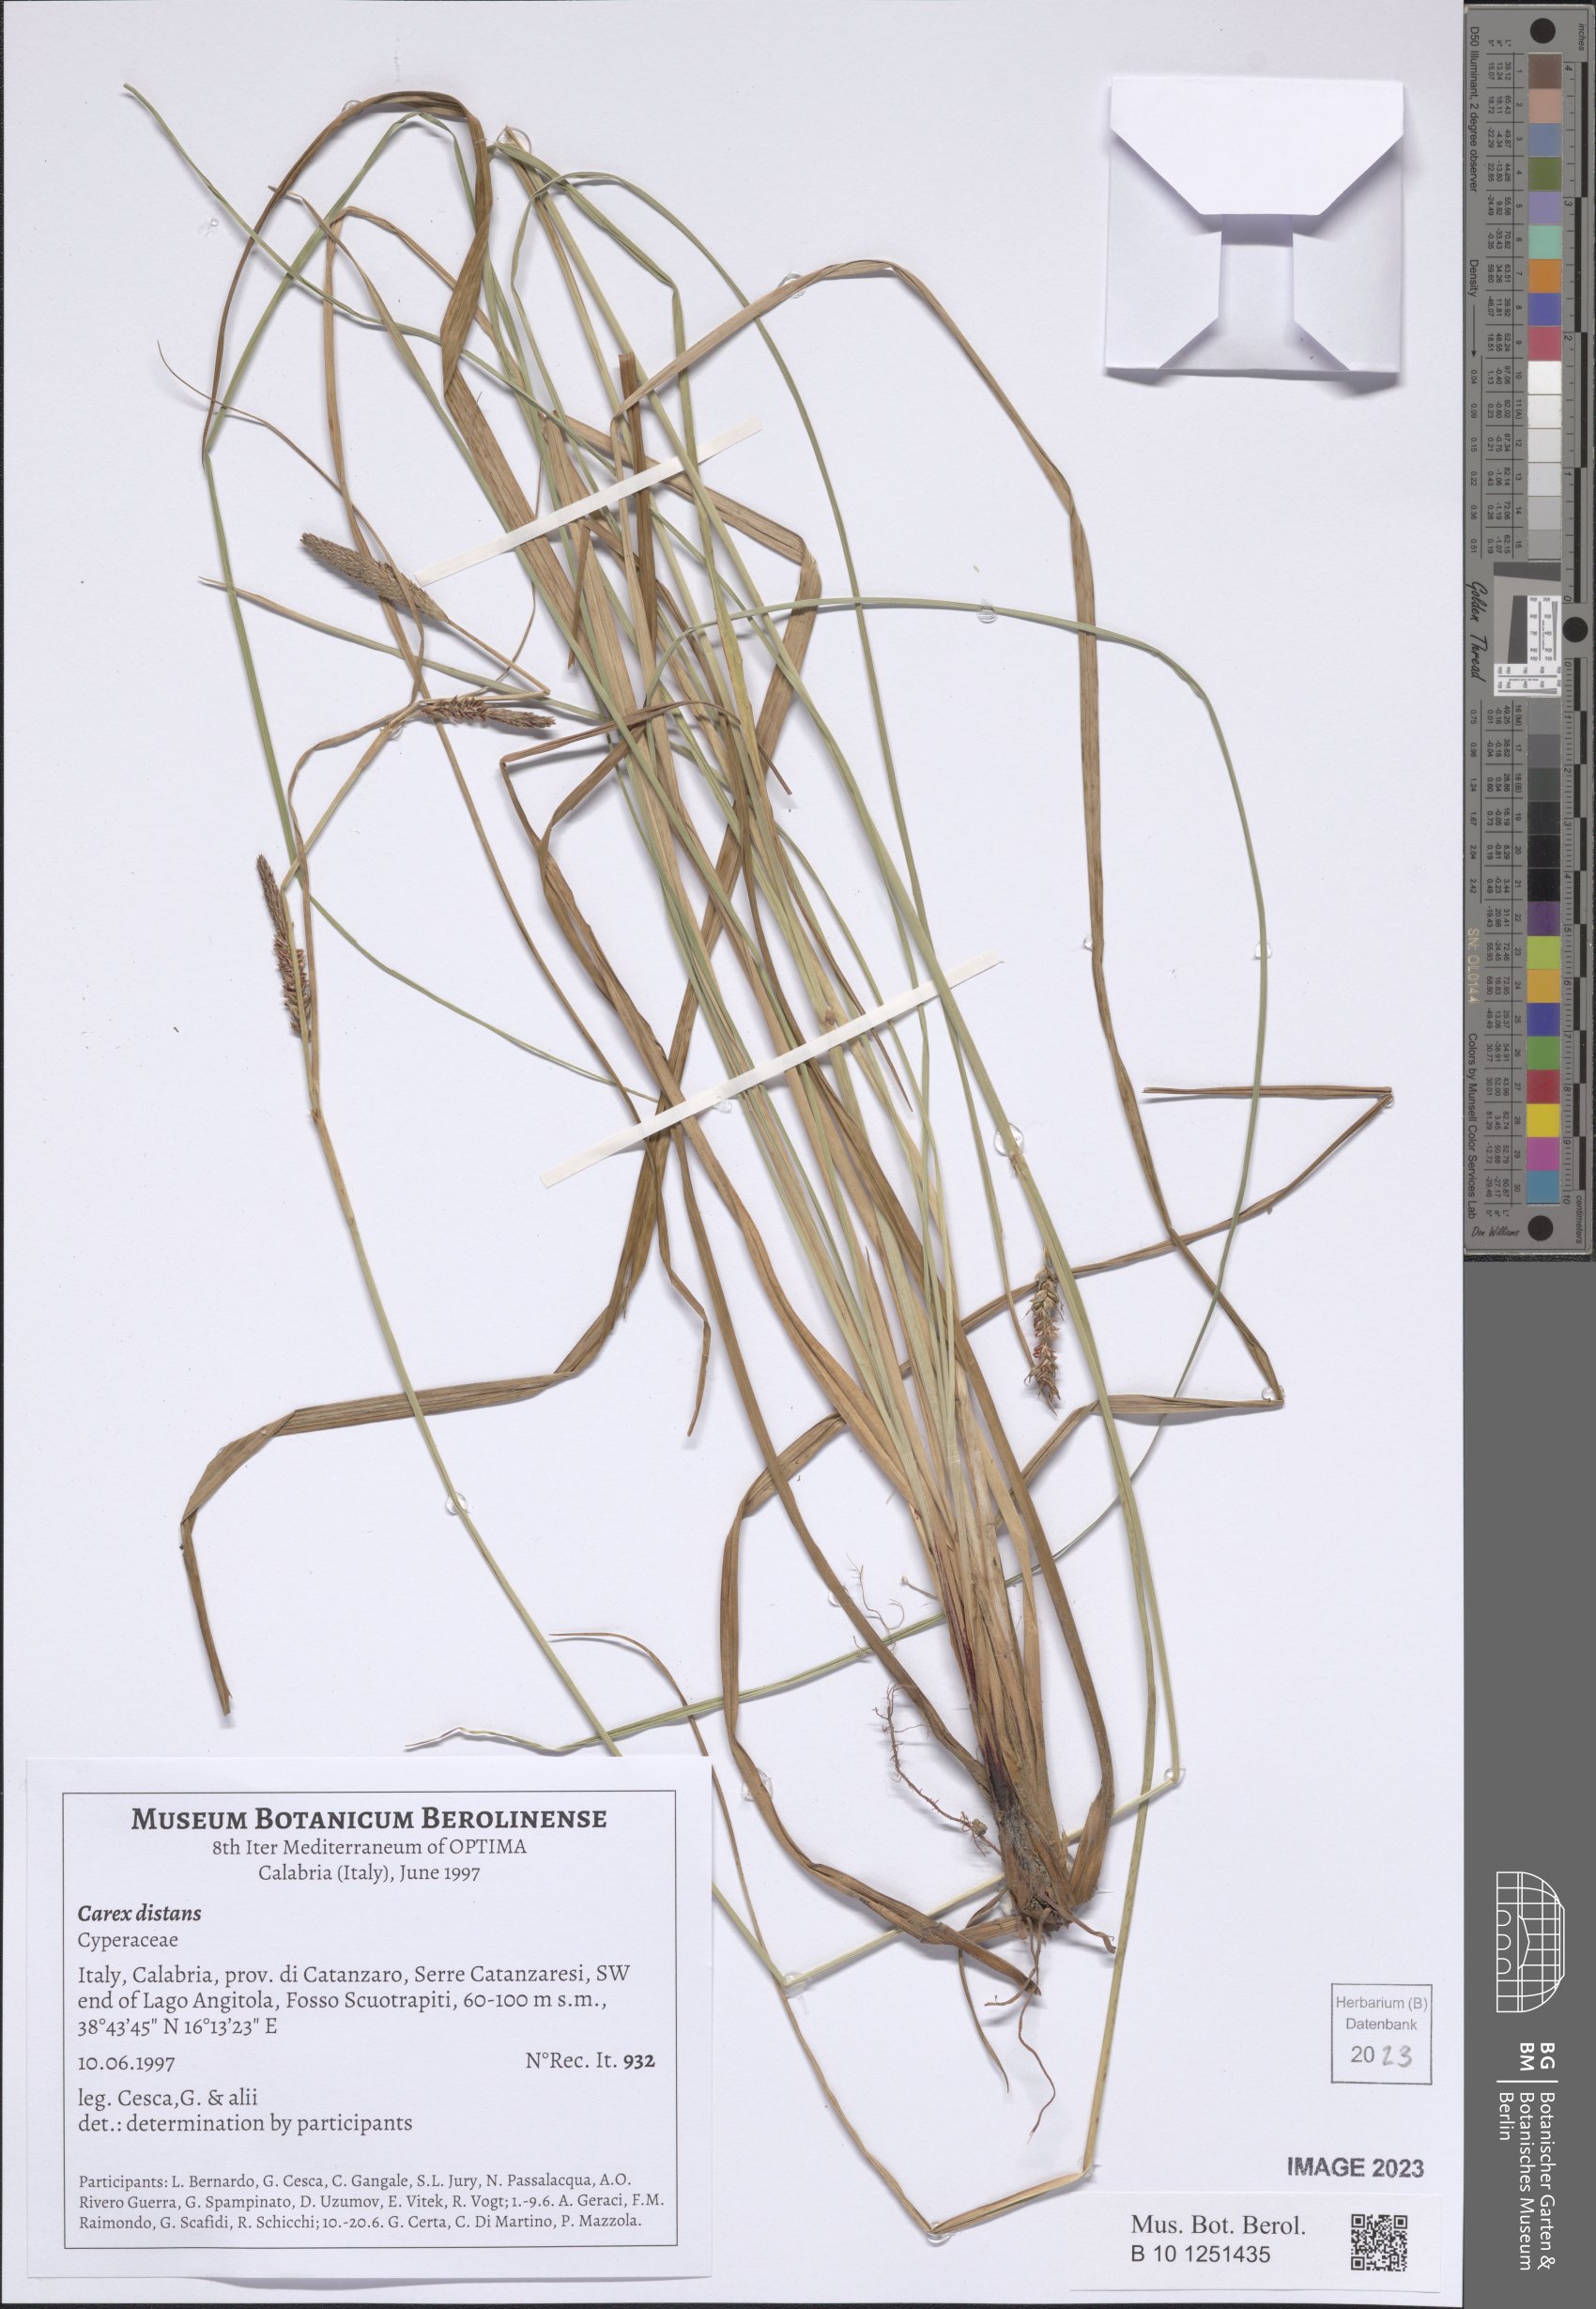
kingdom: Plantae
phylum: Tracheophyta
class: Liliopsida
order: Poales
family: Cyperaceae
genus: Carex
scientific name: Carex distans
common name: Distant sedge
